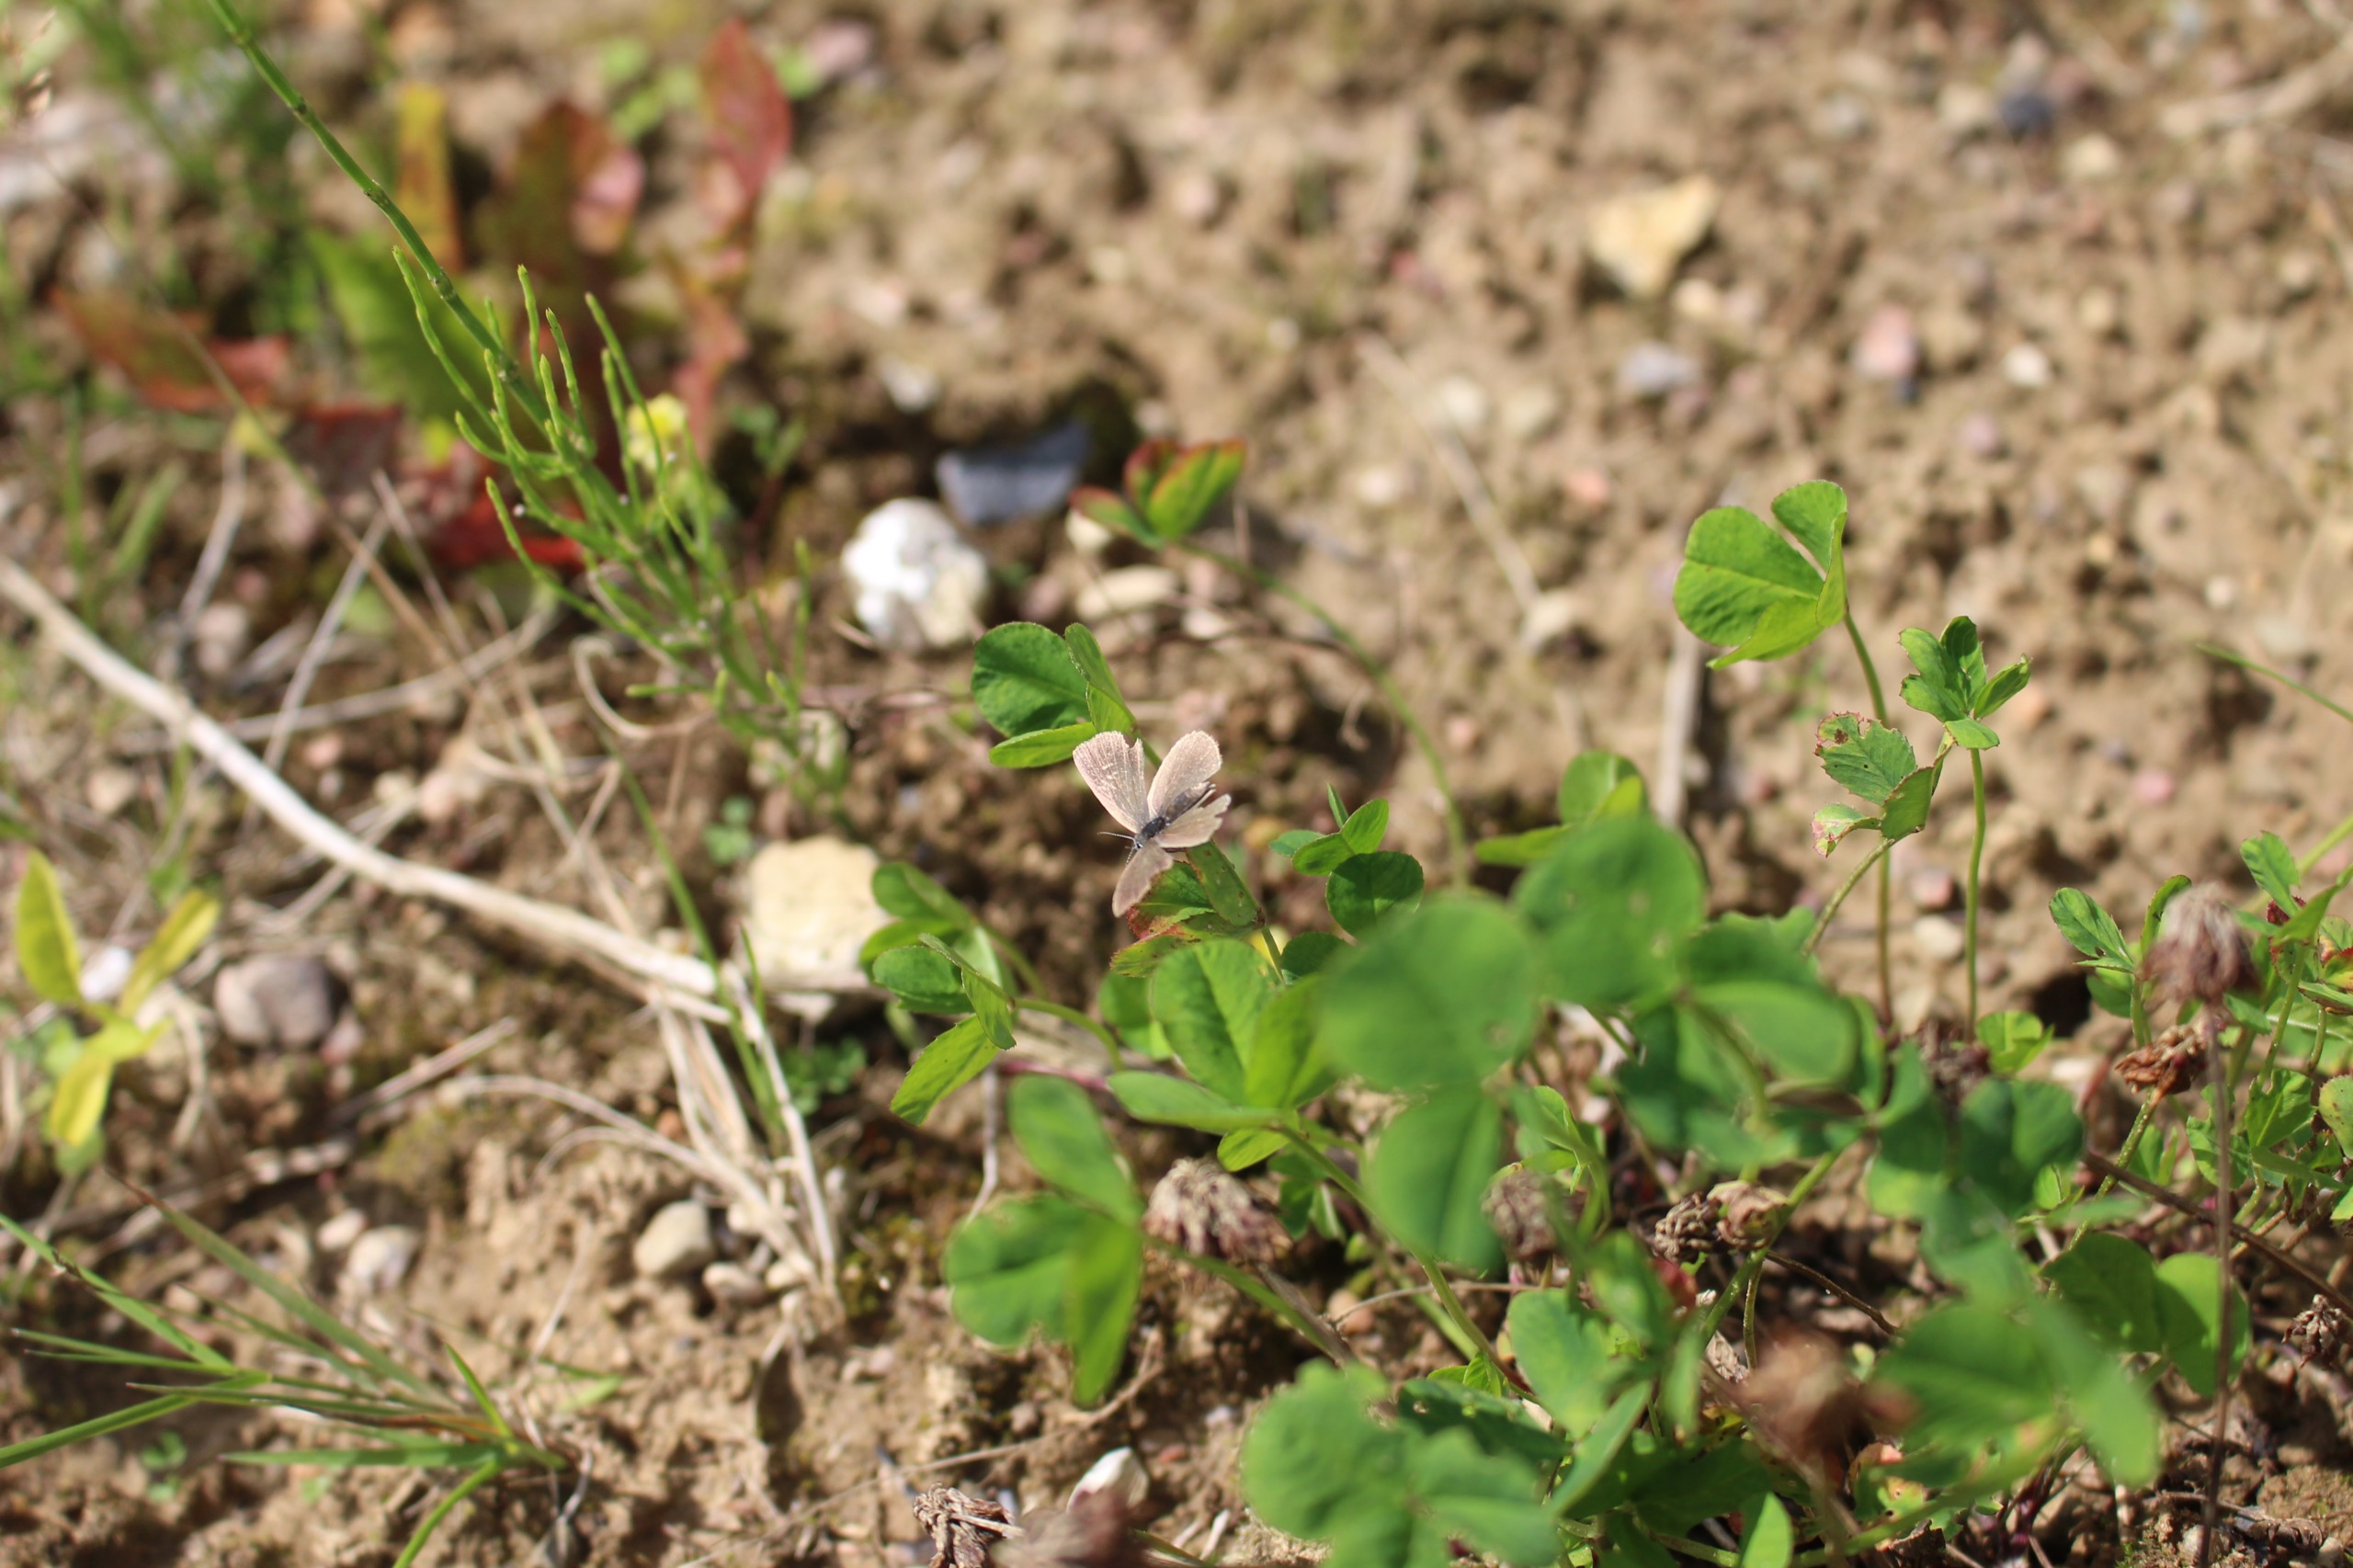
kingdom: Animalia
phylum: Arthropoda
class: Insecta
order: Lepidoptera
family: Lycaenidae
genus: Cupido
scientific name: Cupido minimus
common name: Dværgblåfugl
